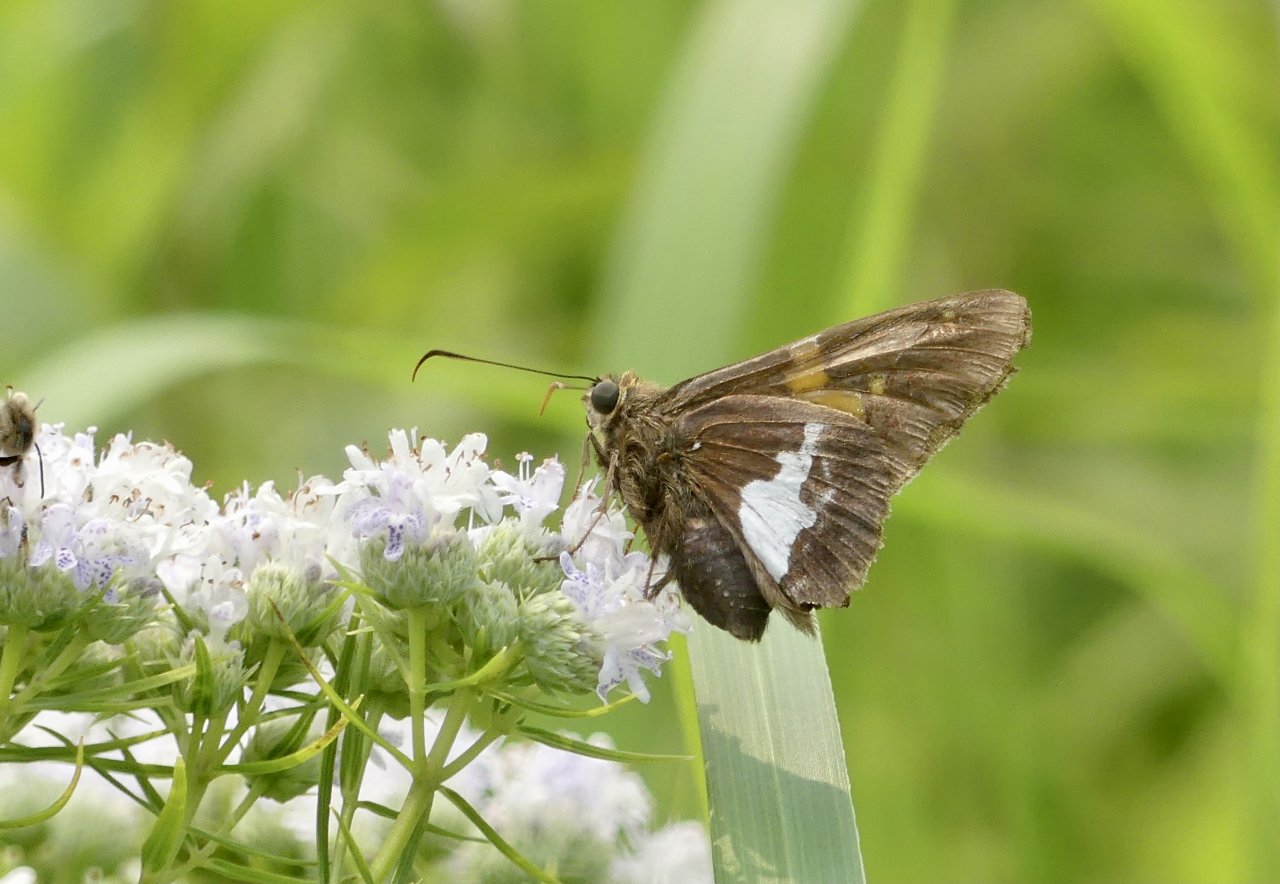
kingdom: Animalia
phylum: Arthropoda
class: Insecta
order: Lepidoptera
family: Hesperiidae
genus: Epargyreus
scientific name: Epargyreus clarus
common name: Silver-spotted Skipper
